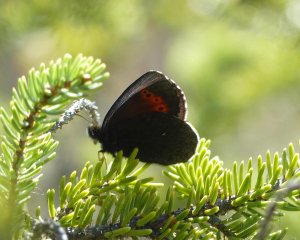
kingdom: Animalia
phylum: Arthropoda
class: Insecta
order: Lepidoptera
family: Nymphalidae
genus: Erebia
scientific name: Erebia disa
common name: Taiga Alpine
